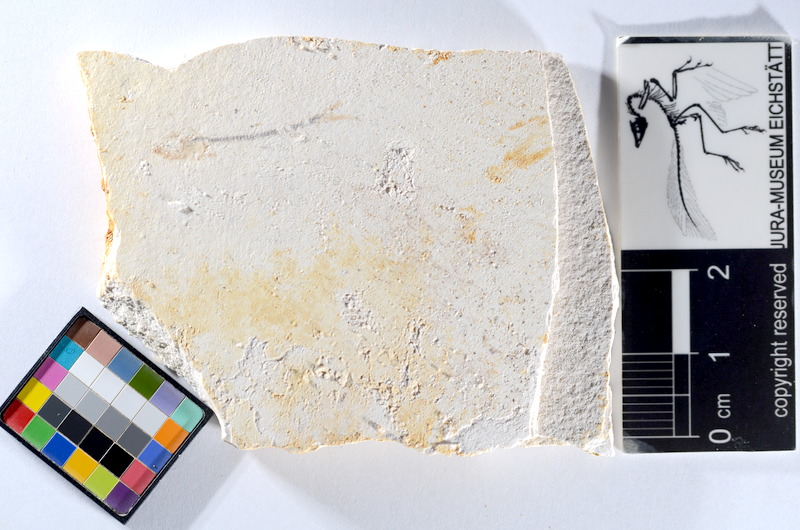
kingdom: Animalia
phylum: Chordata
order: Salmoniformes
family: Orthogonikleithridae
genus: Orthogonikleithrus
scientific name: Orthogonikleithrus hoelli
